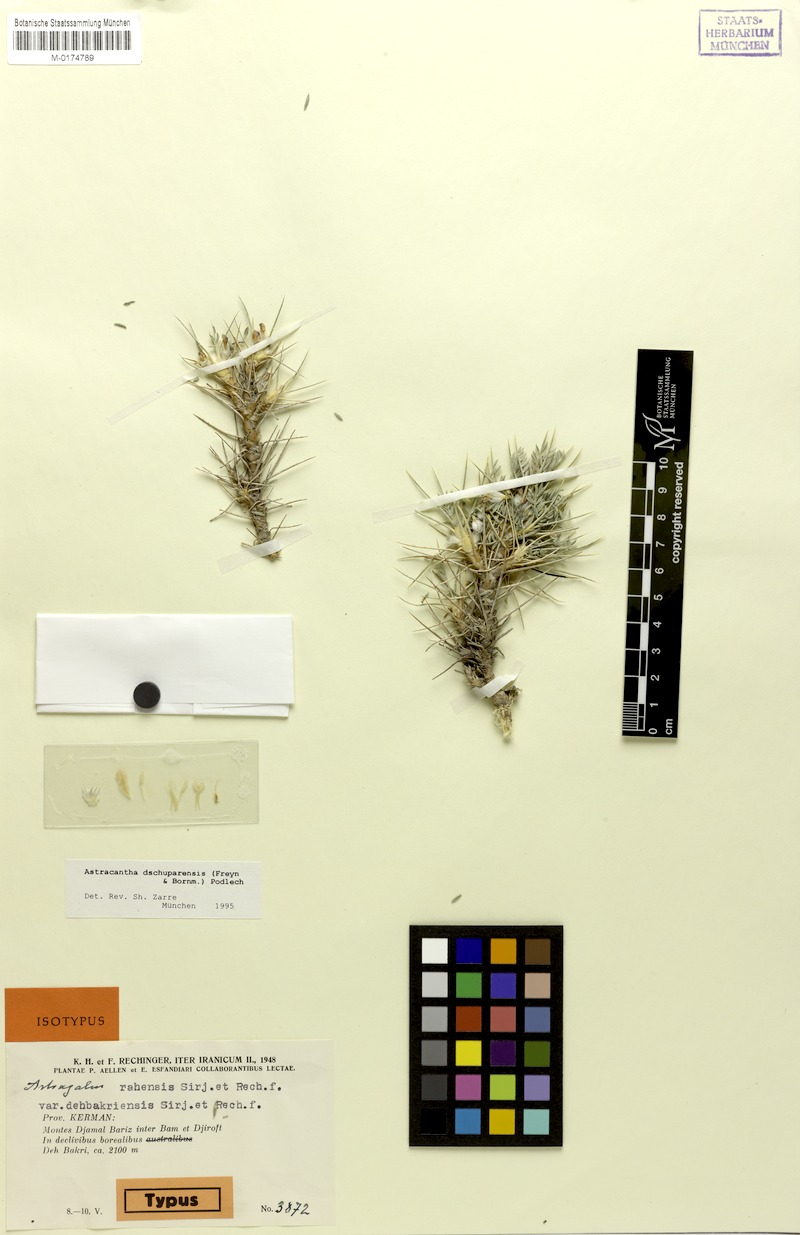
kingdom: Plantae
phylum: Tracheophyta
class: Magnoliopsida
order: Fabales
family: Fabaceae
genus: Astragalus
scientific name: Astragalus dschuparensis
